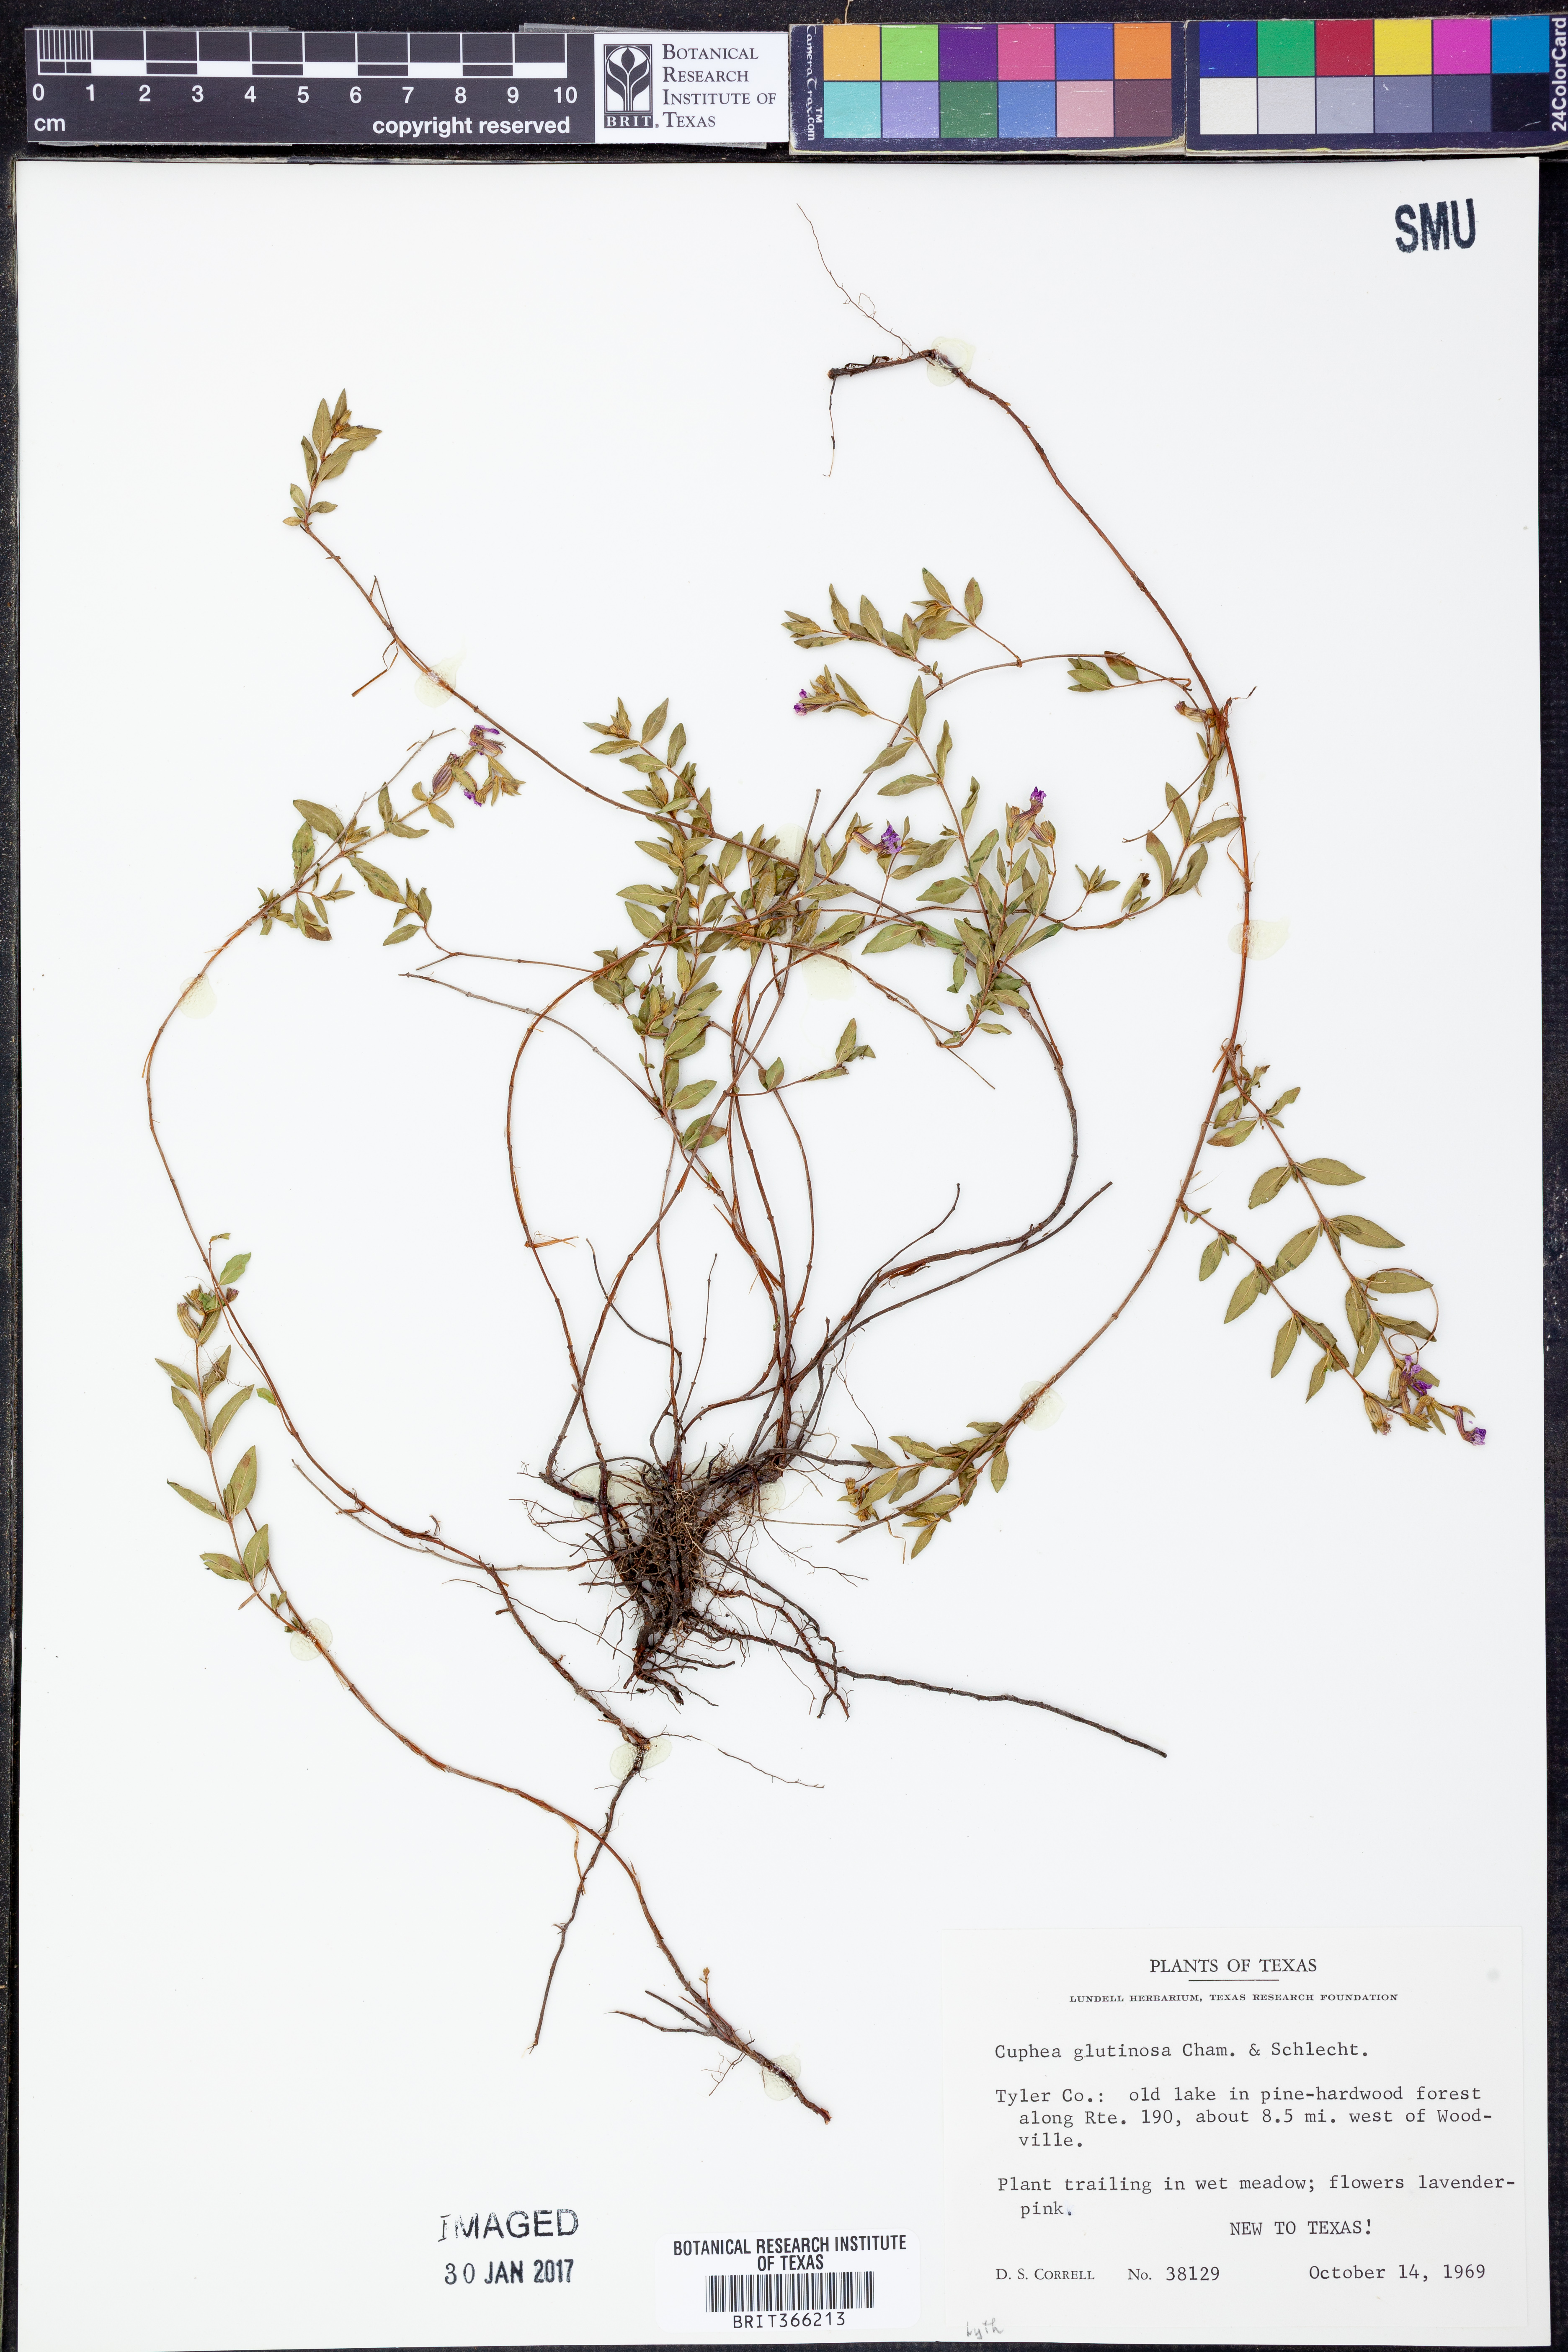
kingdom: Plantae
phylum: Tracheophyta
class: Magnoliopsida
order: Myrtales
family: Lythraceae
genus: Cuphea
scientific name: Cuphea glutinosa
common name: Sticky waxweed
